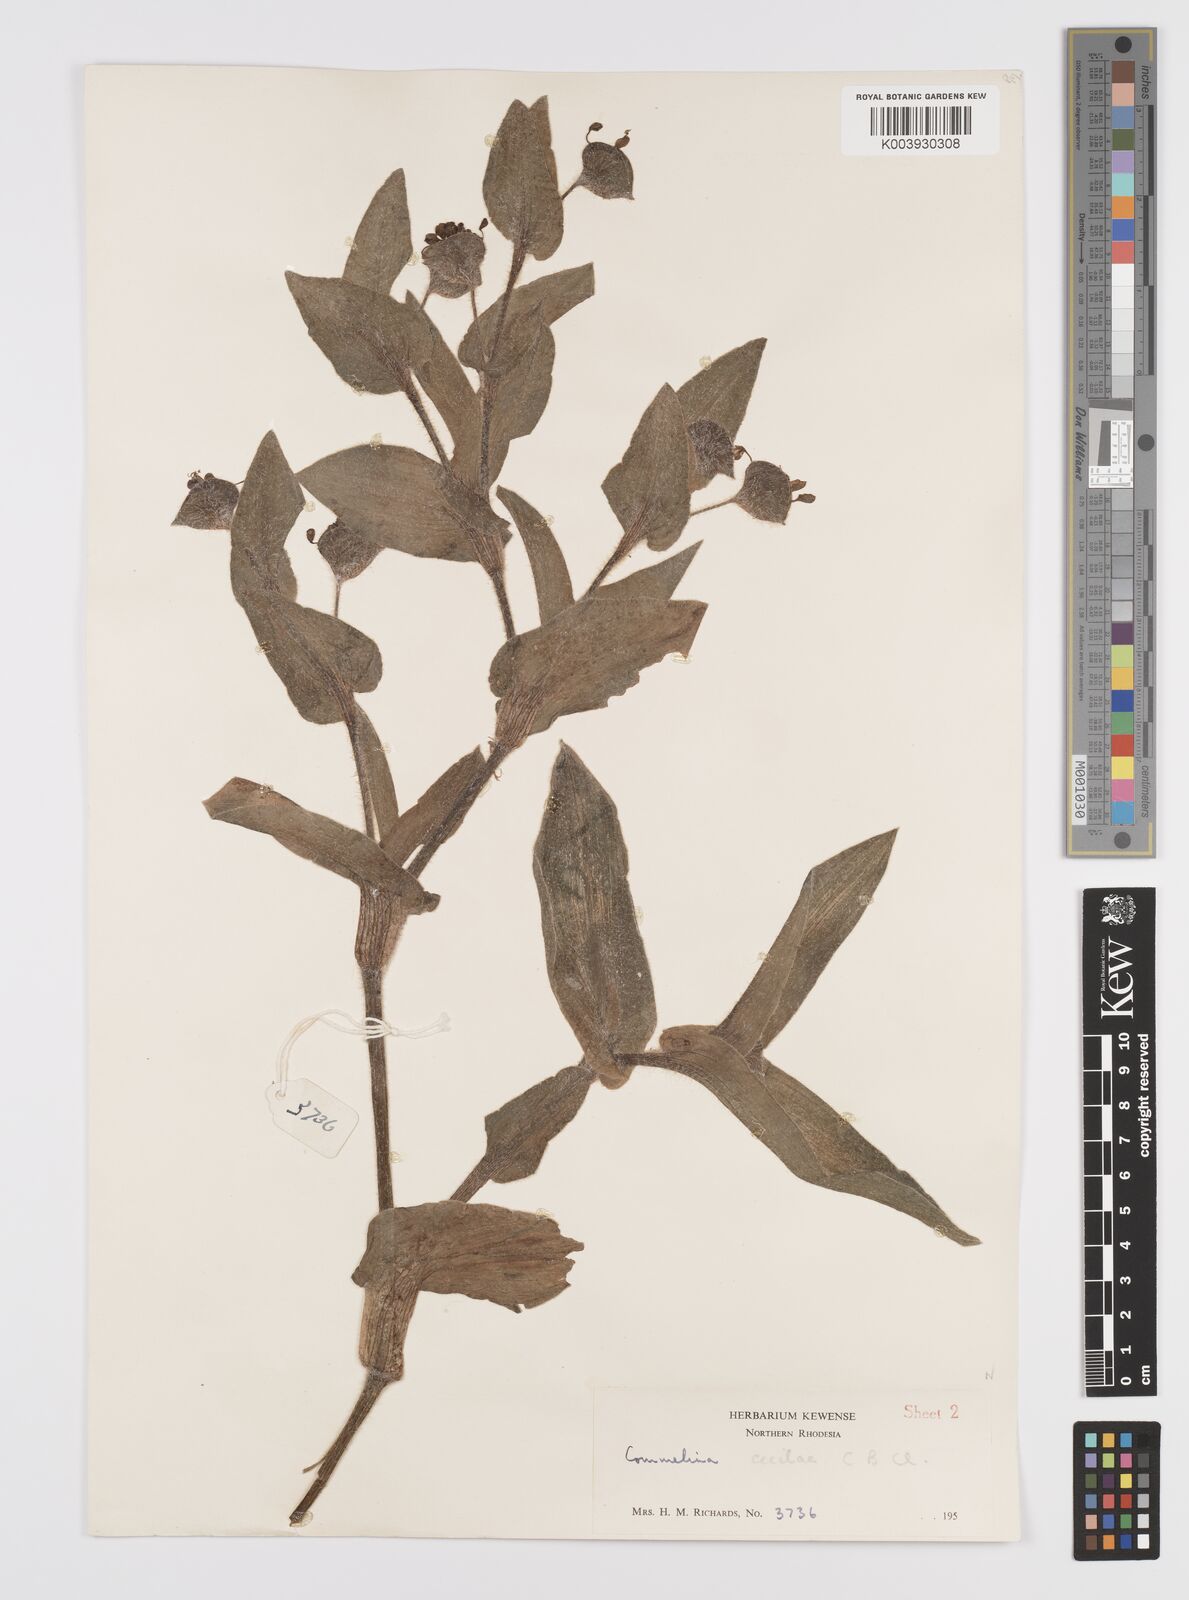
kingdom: Plantae
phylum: Tracheophyta
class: Liliopsida
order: Commelinales
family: Commelinaceae
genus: Commelina
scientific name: Commelina cecilae
